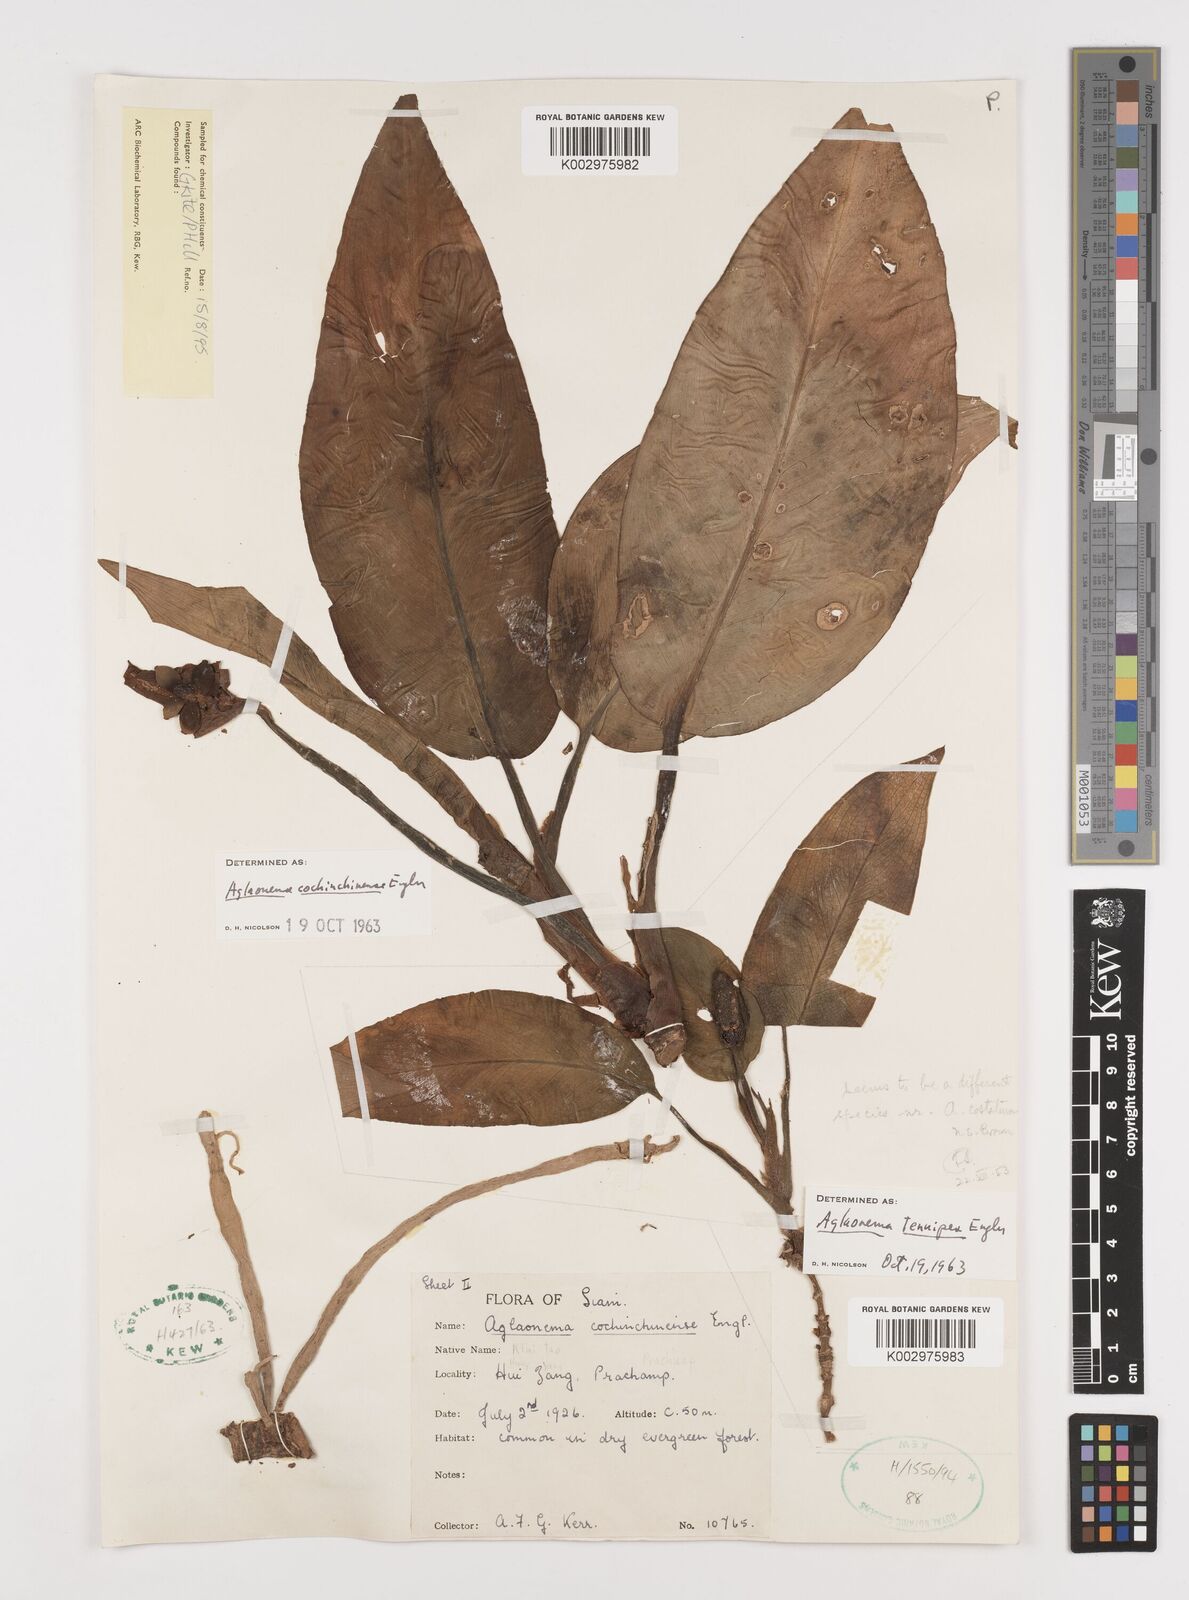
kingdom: Plantae
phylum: Tracheophyta
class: Liliopsida
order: Alismatales
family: Araceae
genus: Aglaonema
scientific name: Aglaonema cochinchinense
